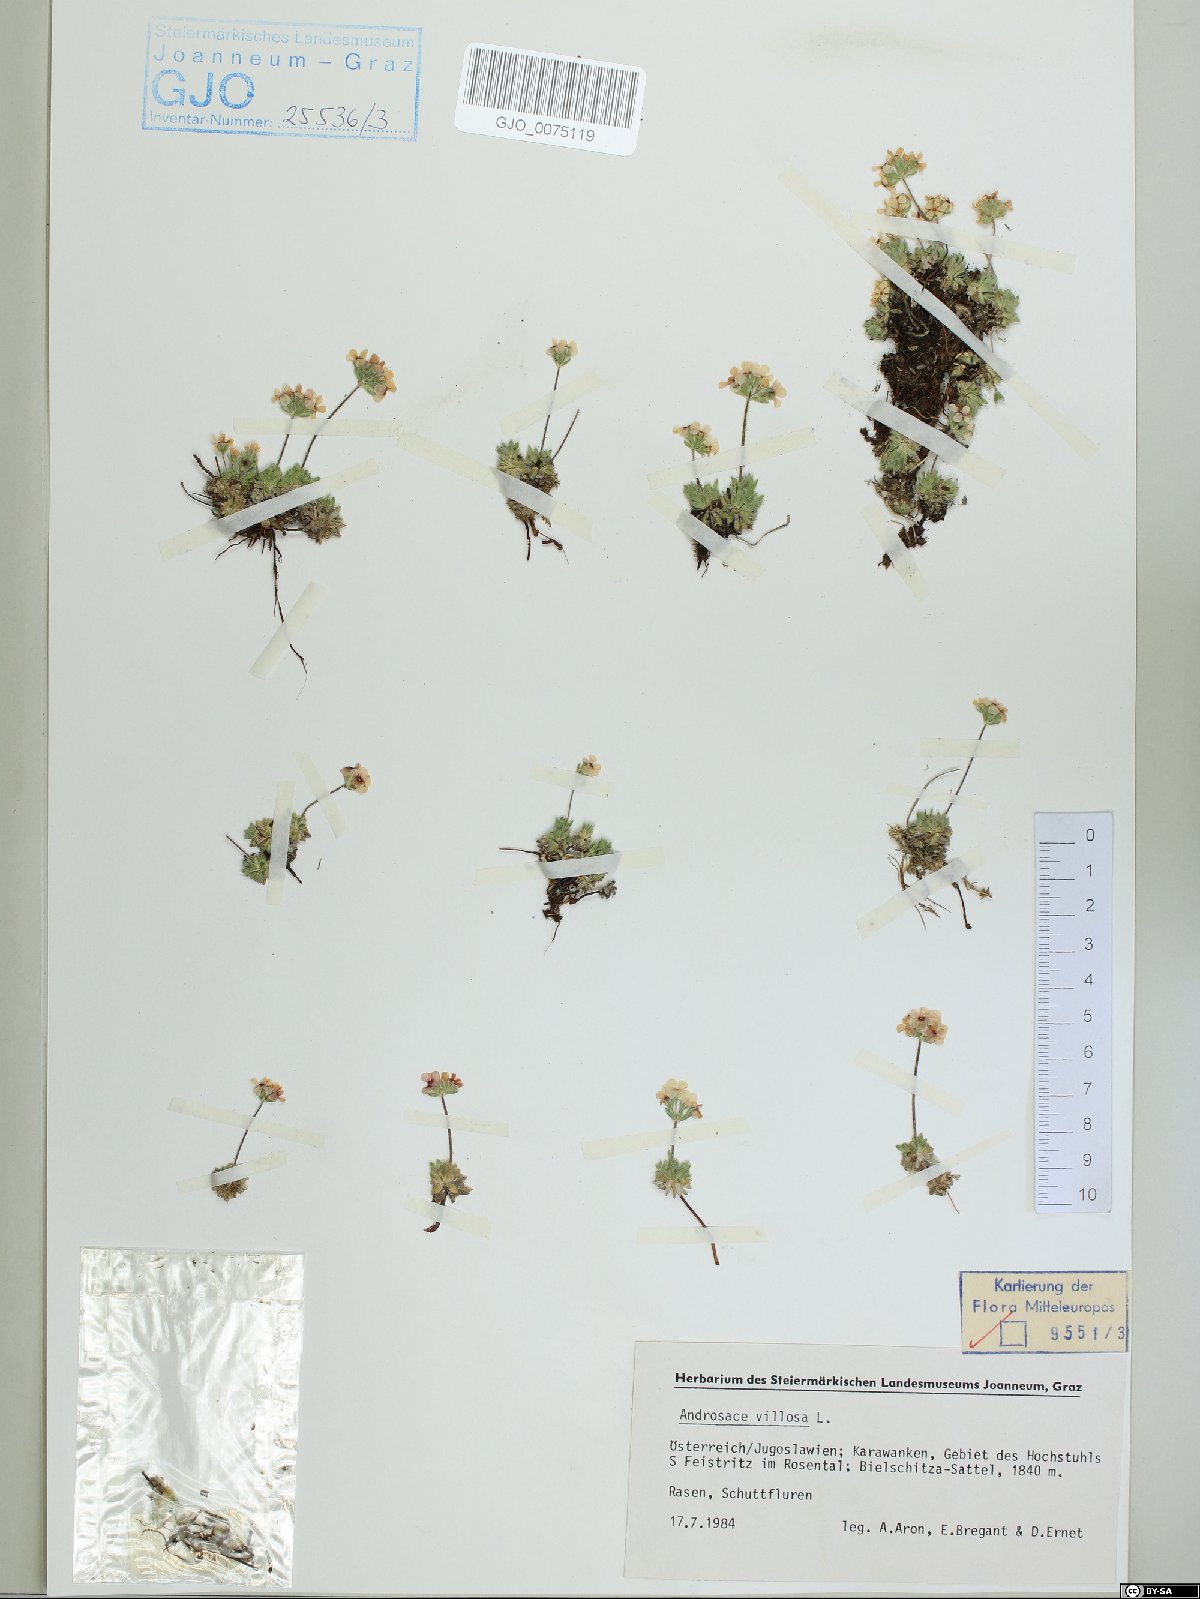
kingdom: Plantae
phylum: Tracheophyta
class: Magnoliopsida
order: Ericales
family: Primulaceae
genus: Androsace
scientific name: Androsace villosa
